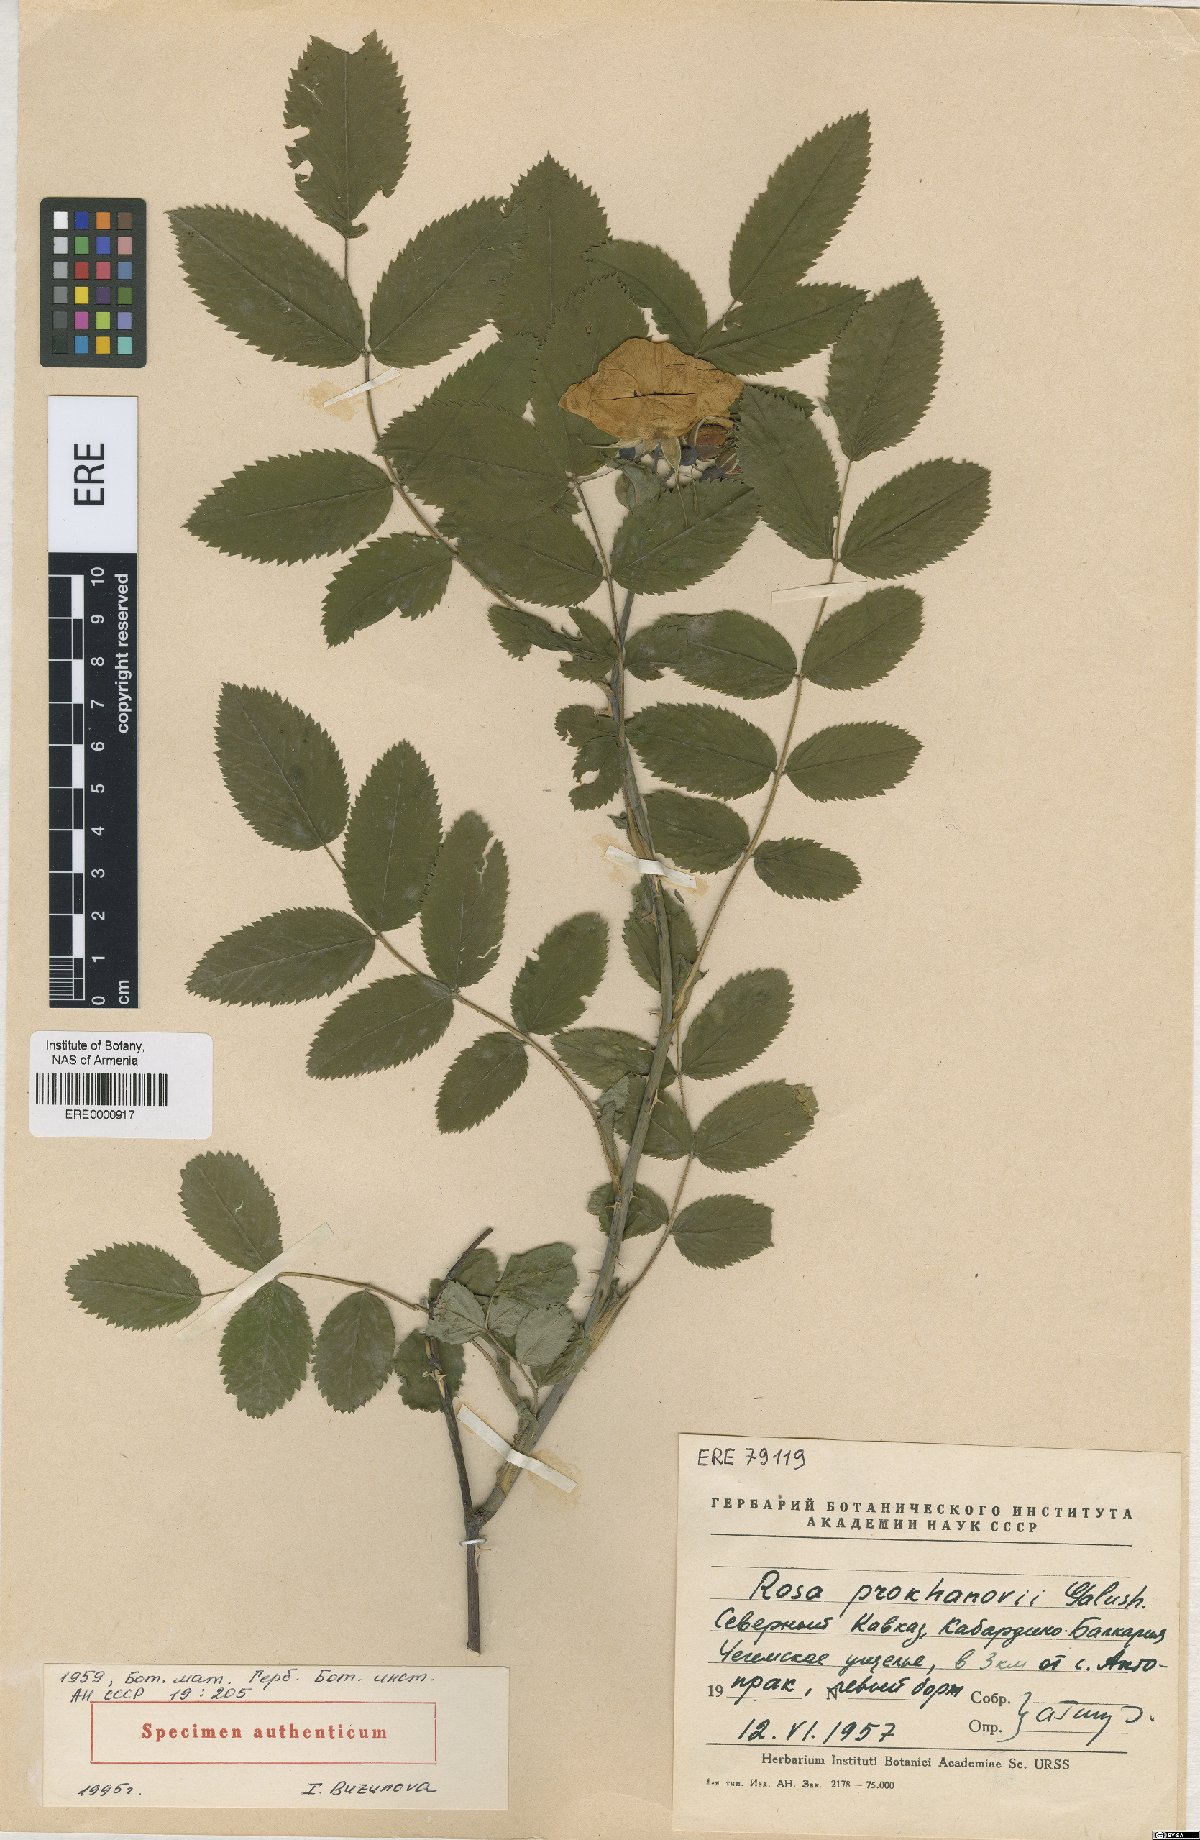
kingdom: Plantae
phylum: Tracheophyta
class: Magnoliopsida
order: Rosales
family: Rosaceae
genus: Rosa
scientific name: Rosa prokhanovii
